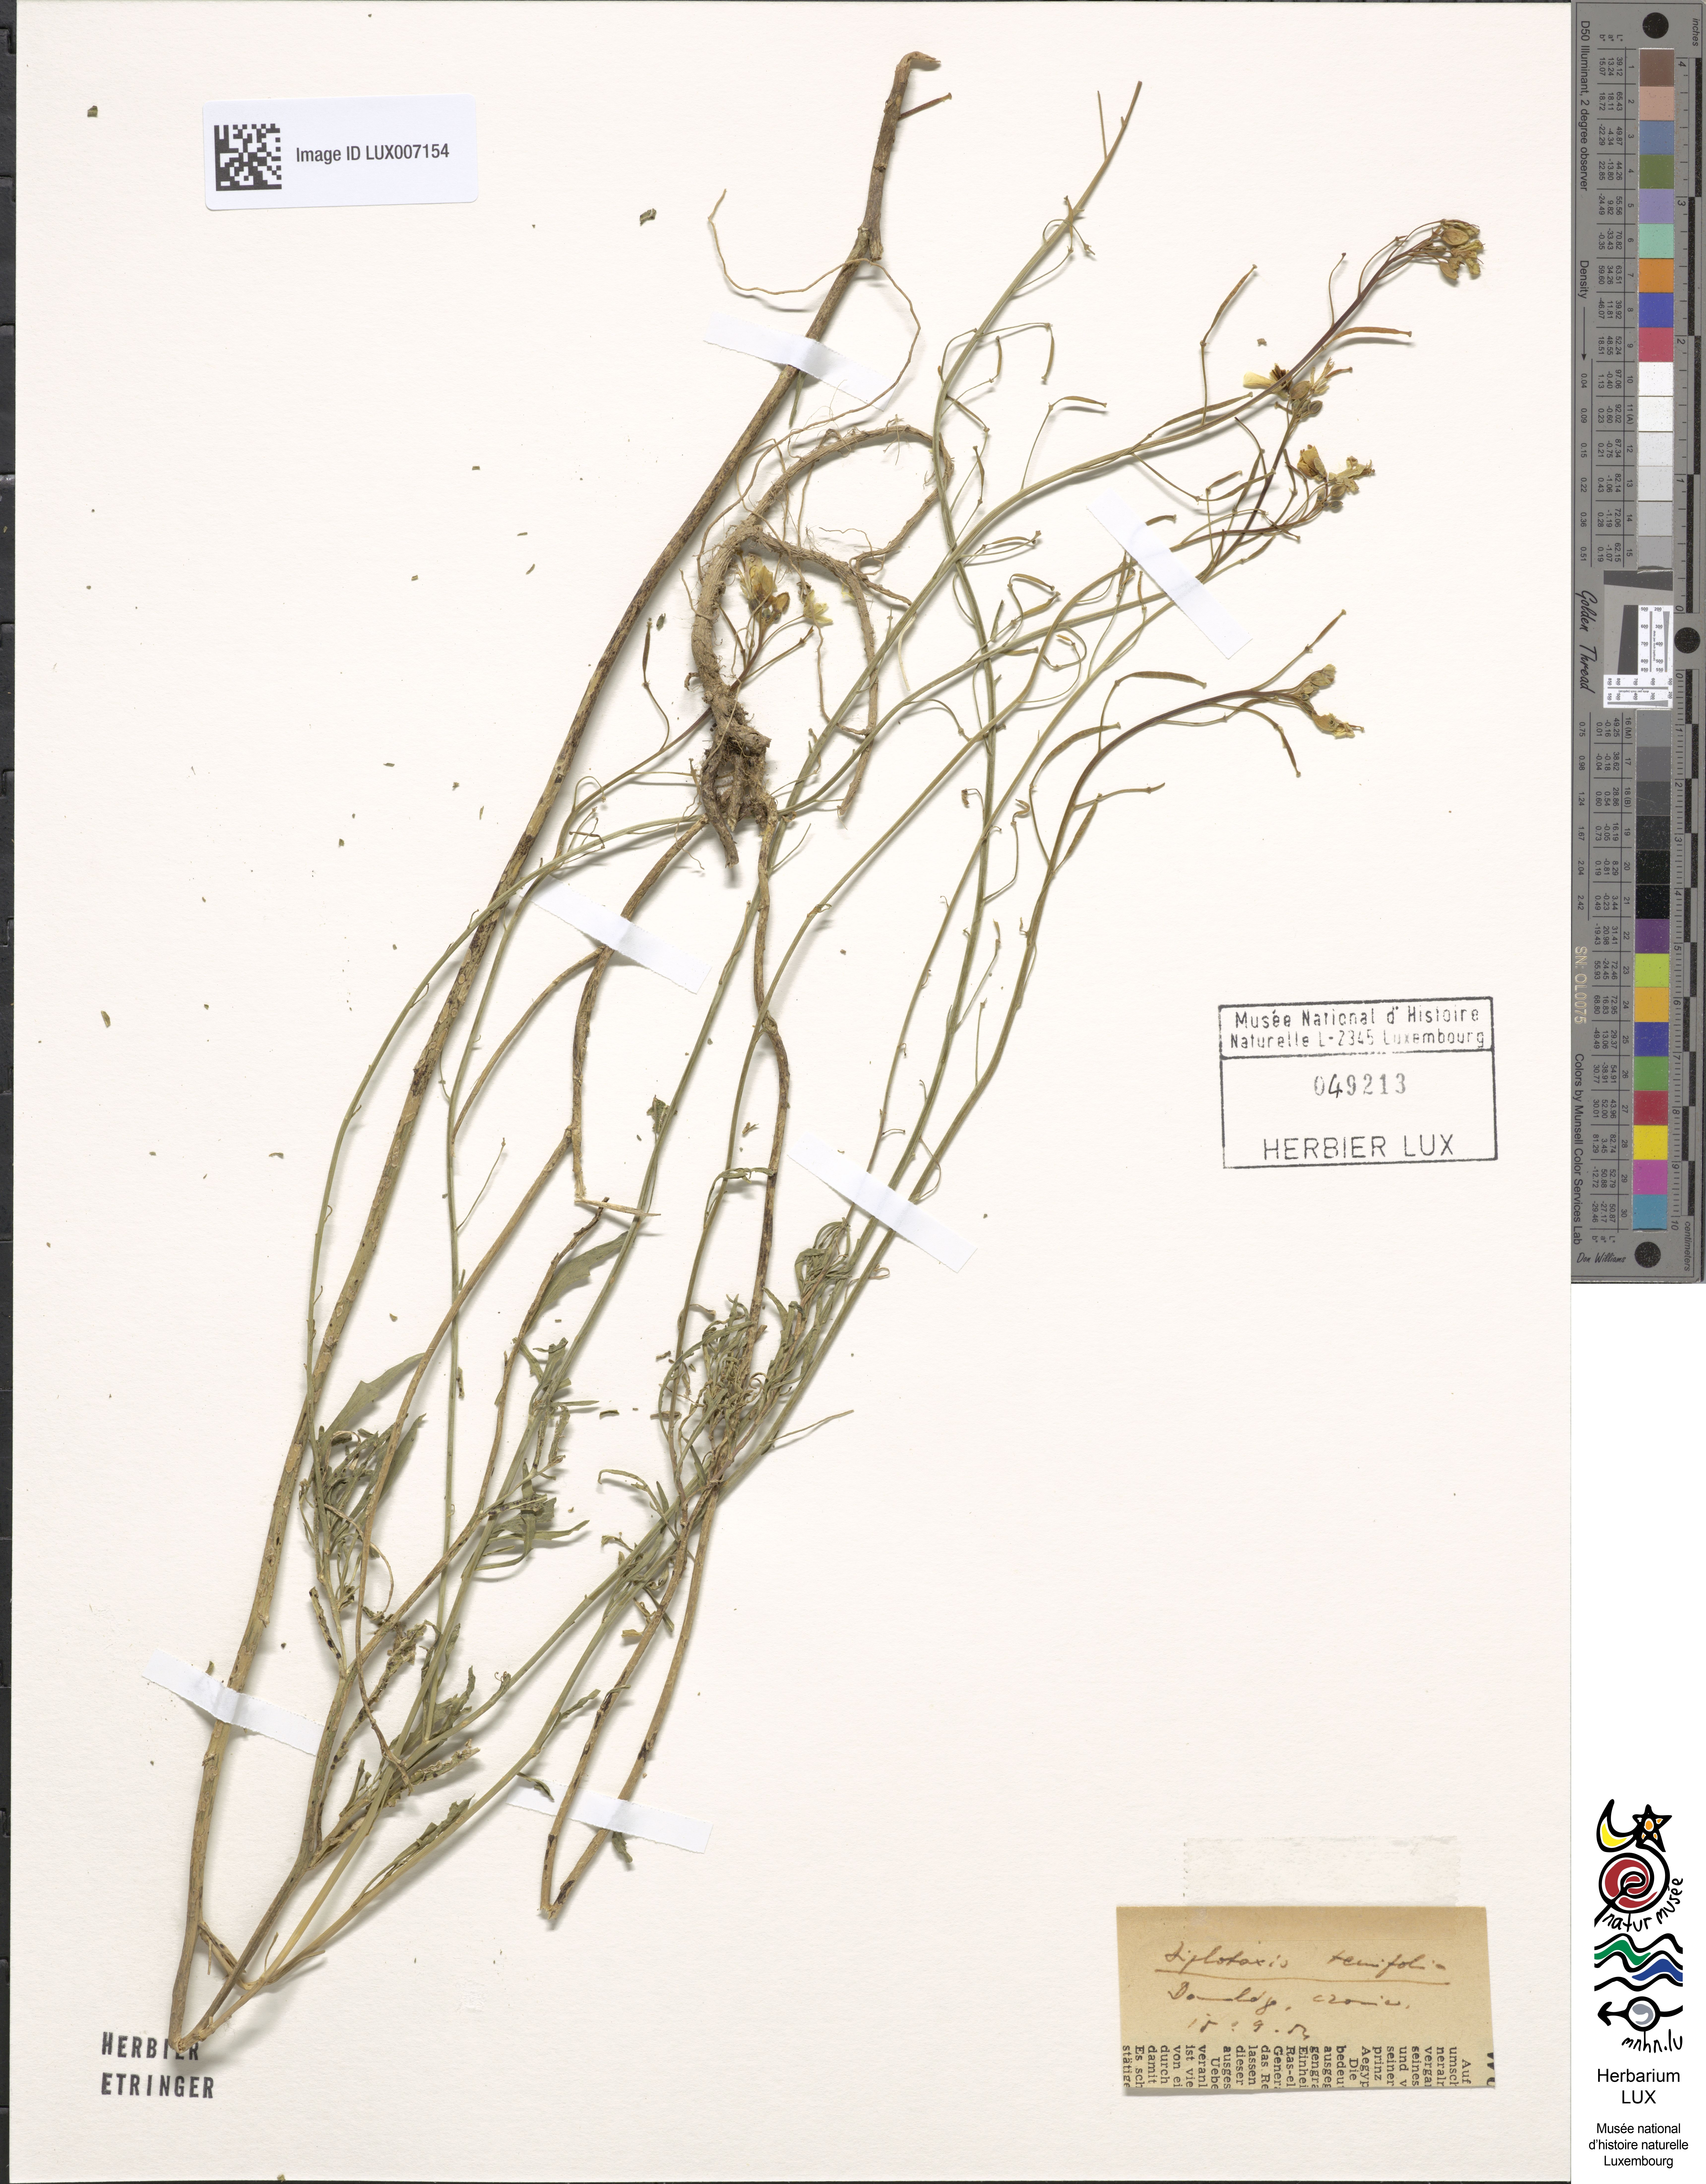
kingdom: Plantae
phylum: Tracheophyta
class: Magnoliopsida
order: Brassicales
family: Brassicaceae
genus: Diplotaxis
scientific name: Diplotaxis tenuifolia
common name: Perennial wall-rocket
